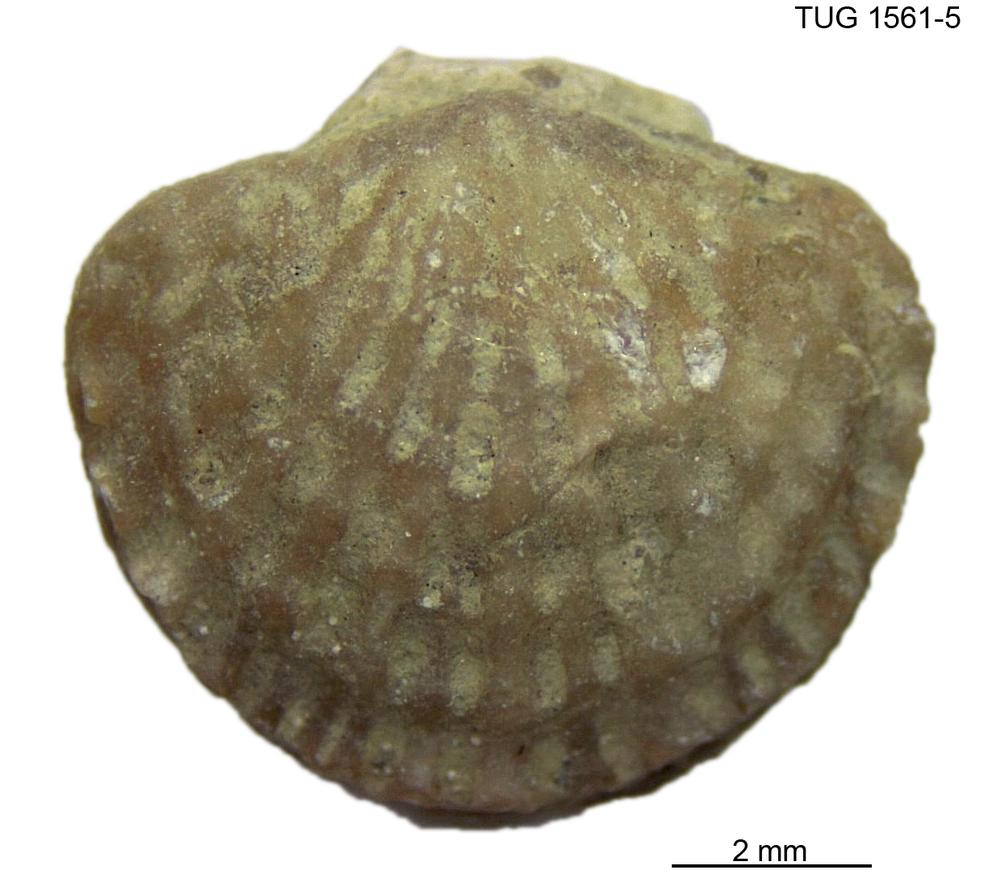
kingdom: Animalia
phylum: Brachiopoda
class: Rhynchonellata
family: Atrypidae
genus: Atrypa
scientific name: Atrypa reticularis
